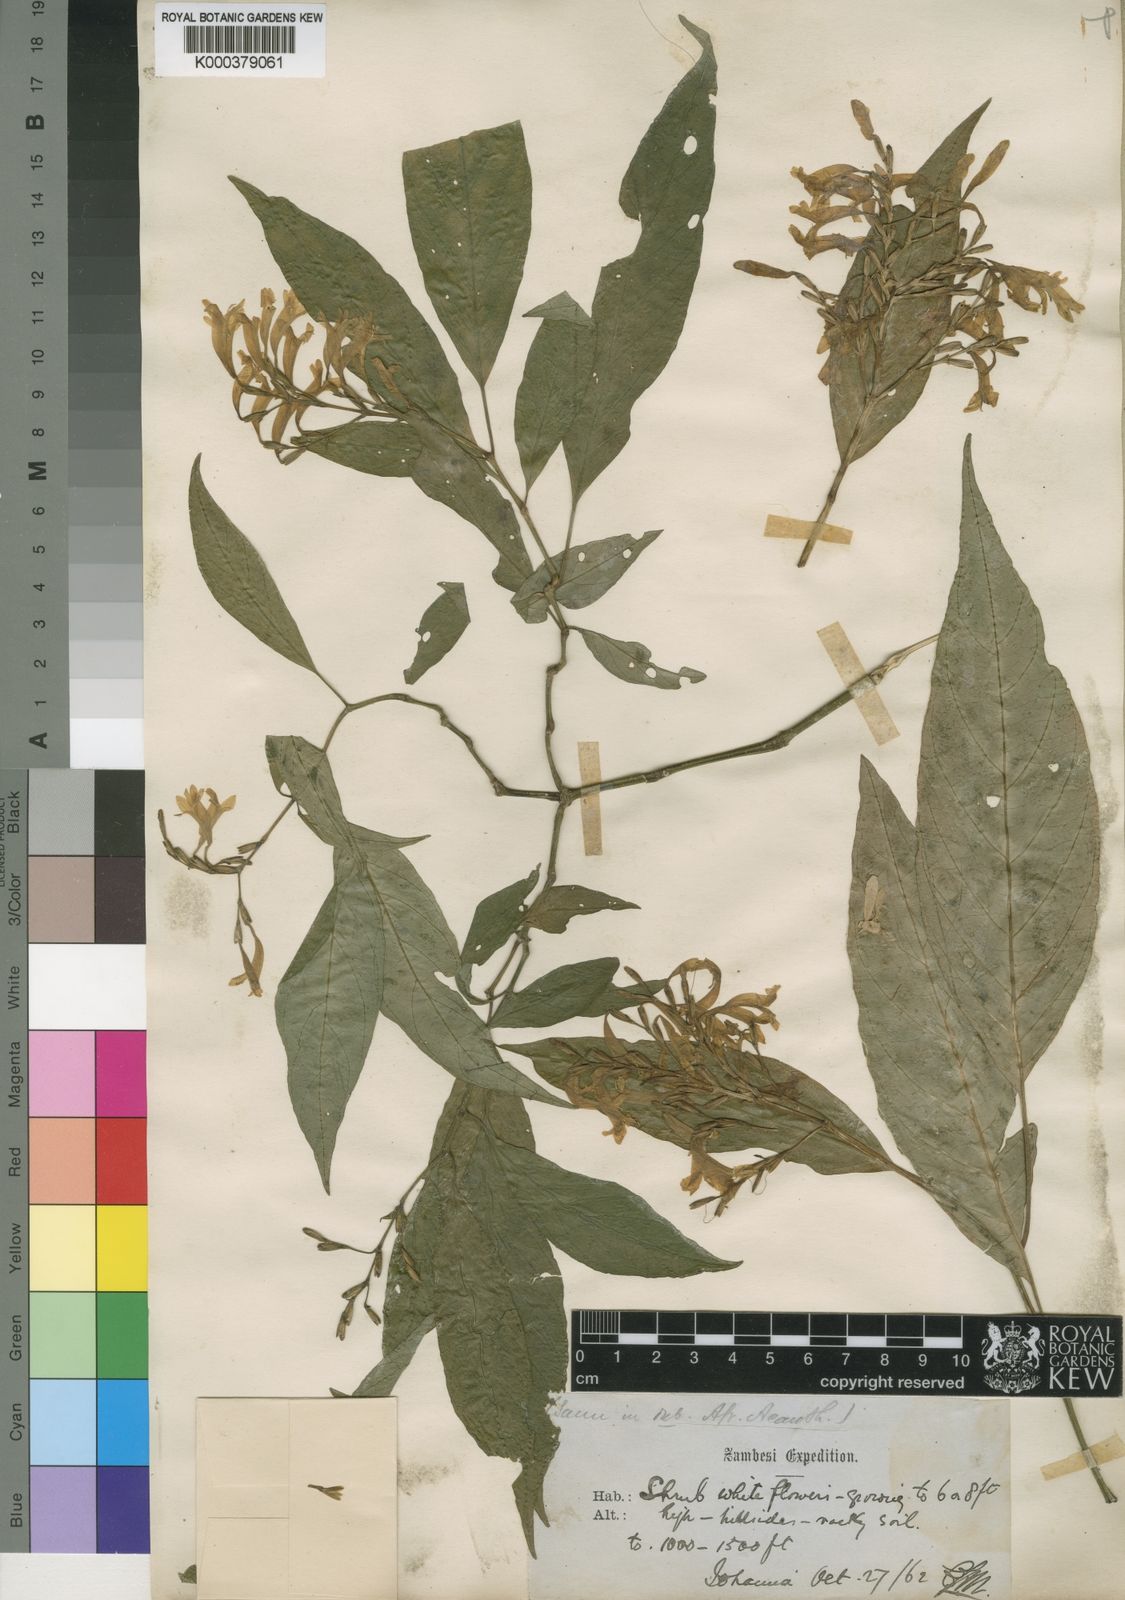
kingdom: Plantae
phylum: Tracheophyta
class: Magnoliopsida
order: Lamiales
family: Acanthaceae
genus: Hypoestes
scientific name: Hypoestes comorensis
